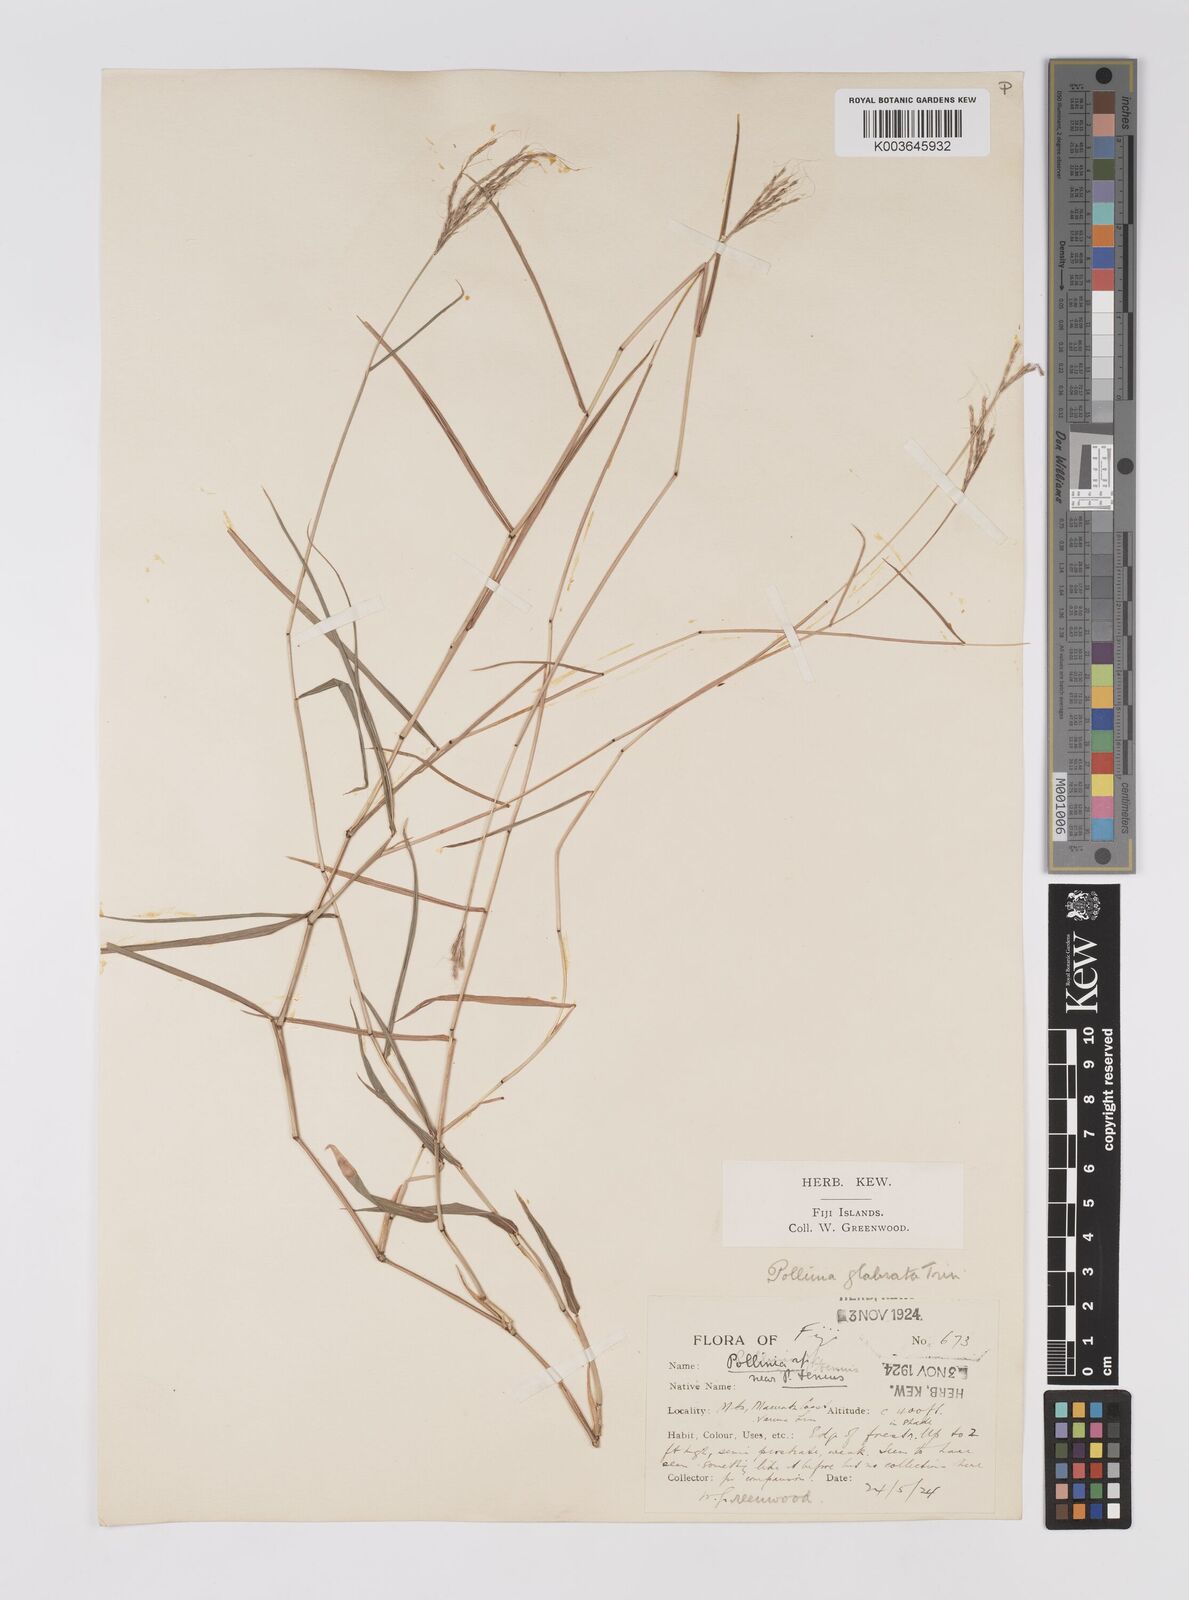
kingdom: Plantae
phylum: Tracheophyta
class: Liliopsida
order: Poales
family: Poaceae
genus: Microstegium
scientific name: Microstegium glabratum
